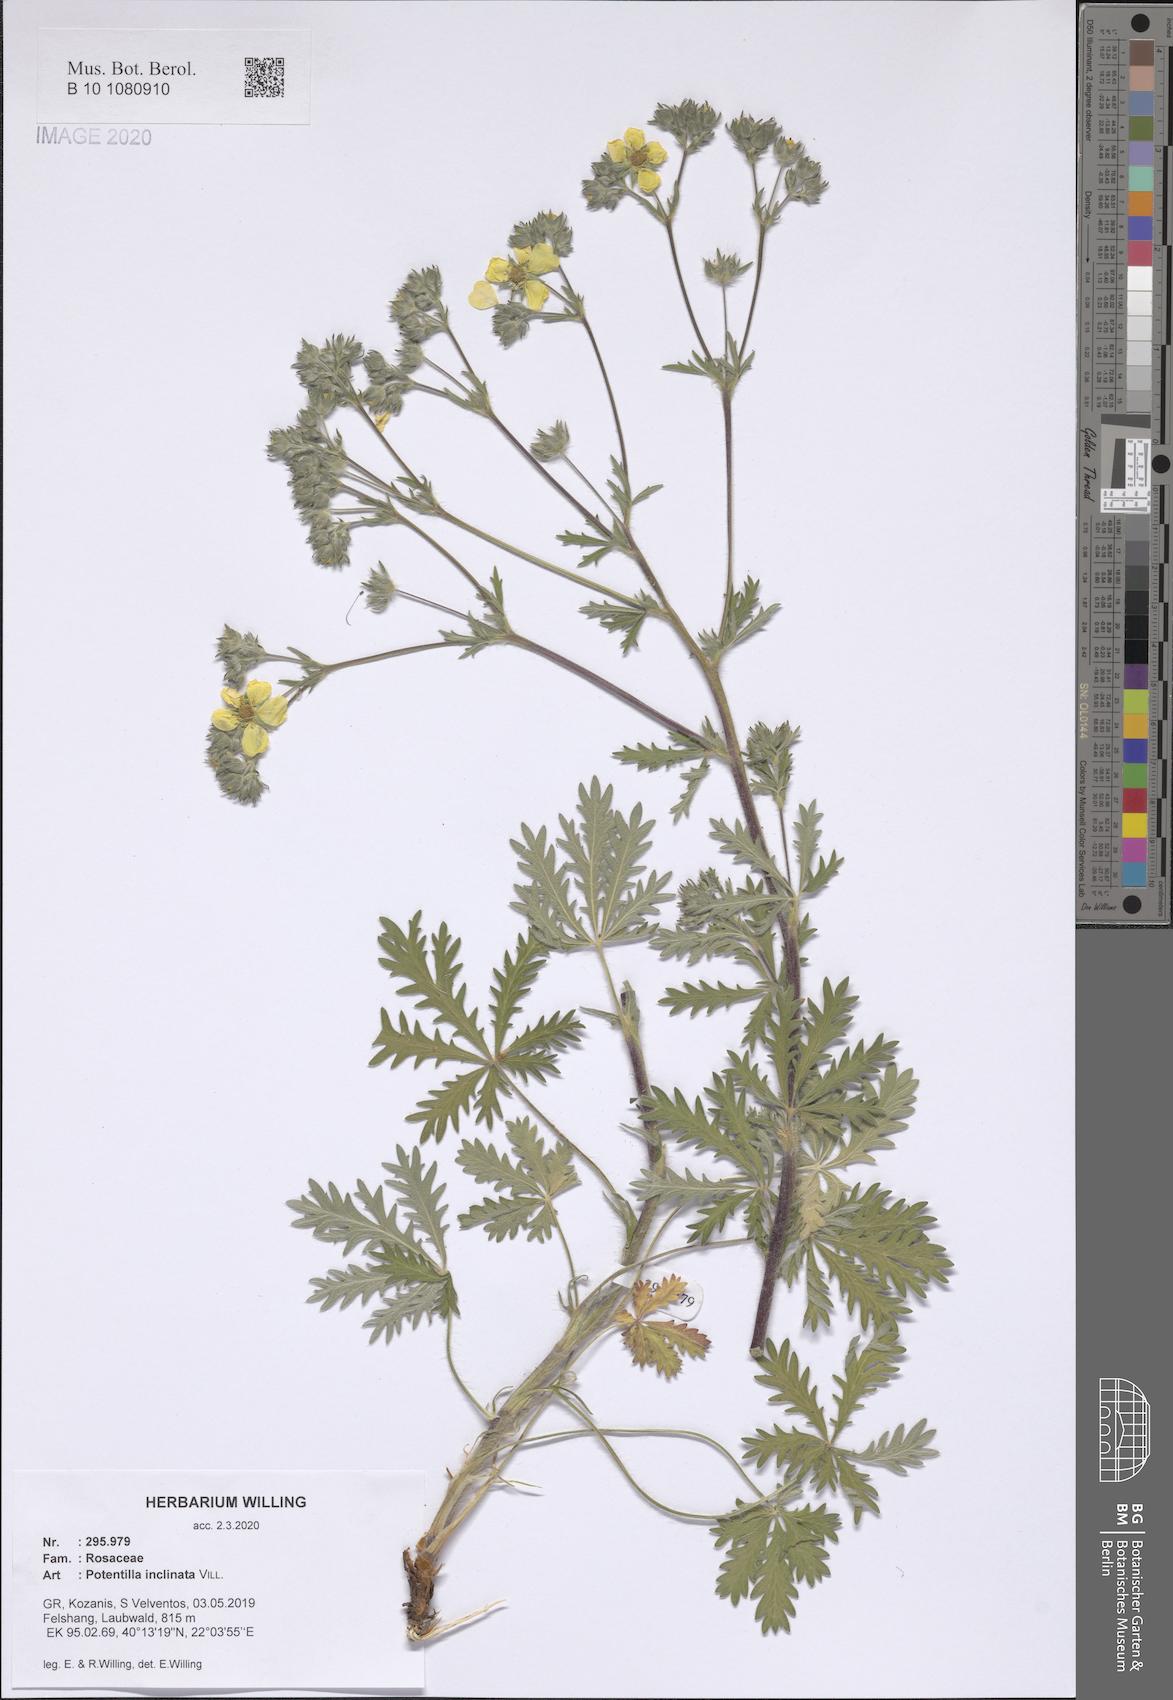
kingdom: Plantae
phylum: Tracheophyta
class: Magnoliopsida
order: Rosales
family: Rosaceae
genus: Potentilla
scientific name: Potentilla inclinata
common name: Grey cinquefoil
